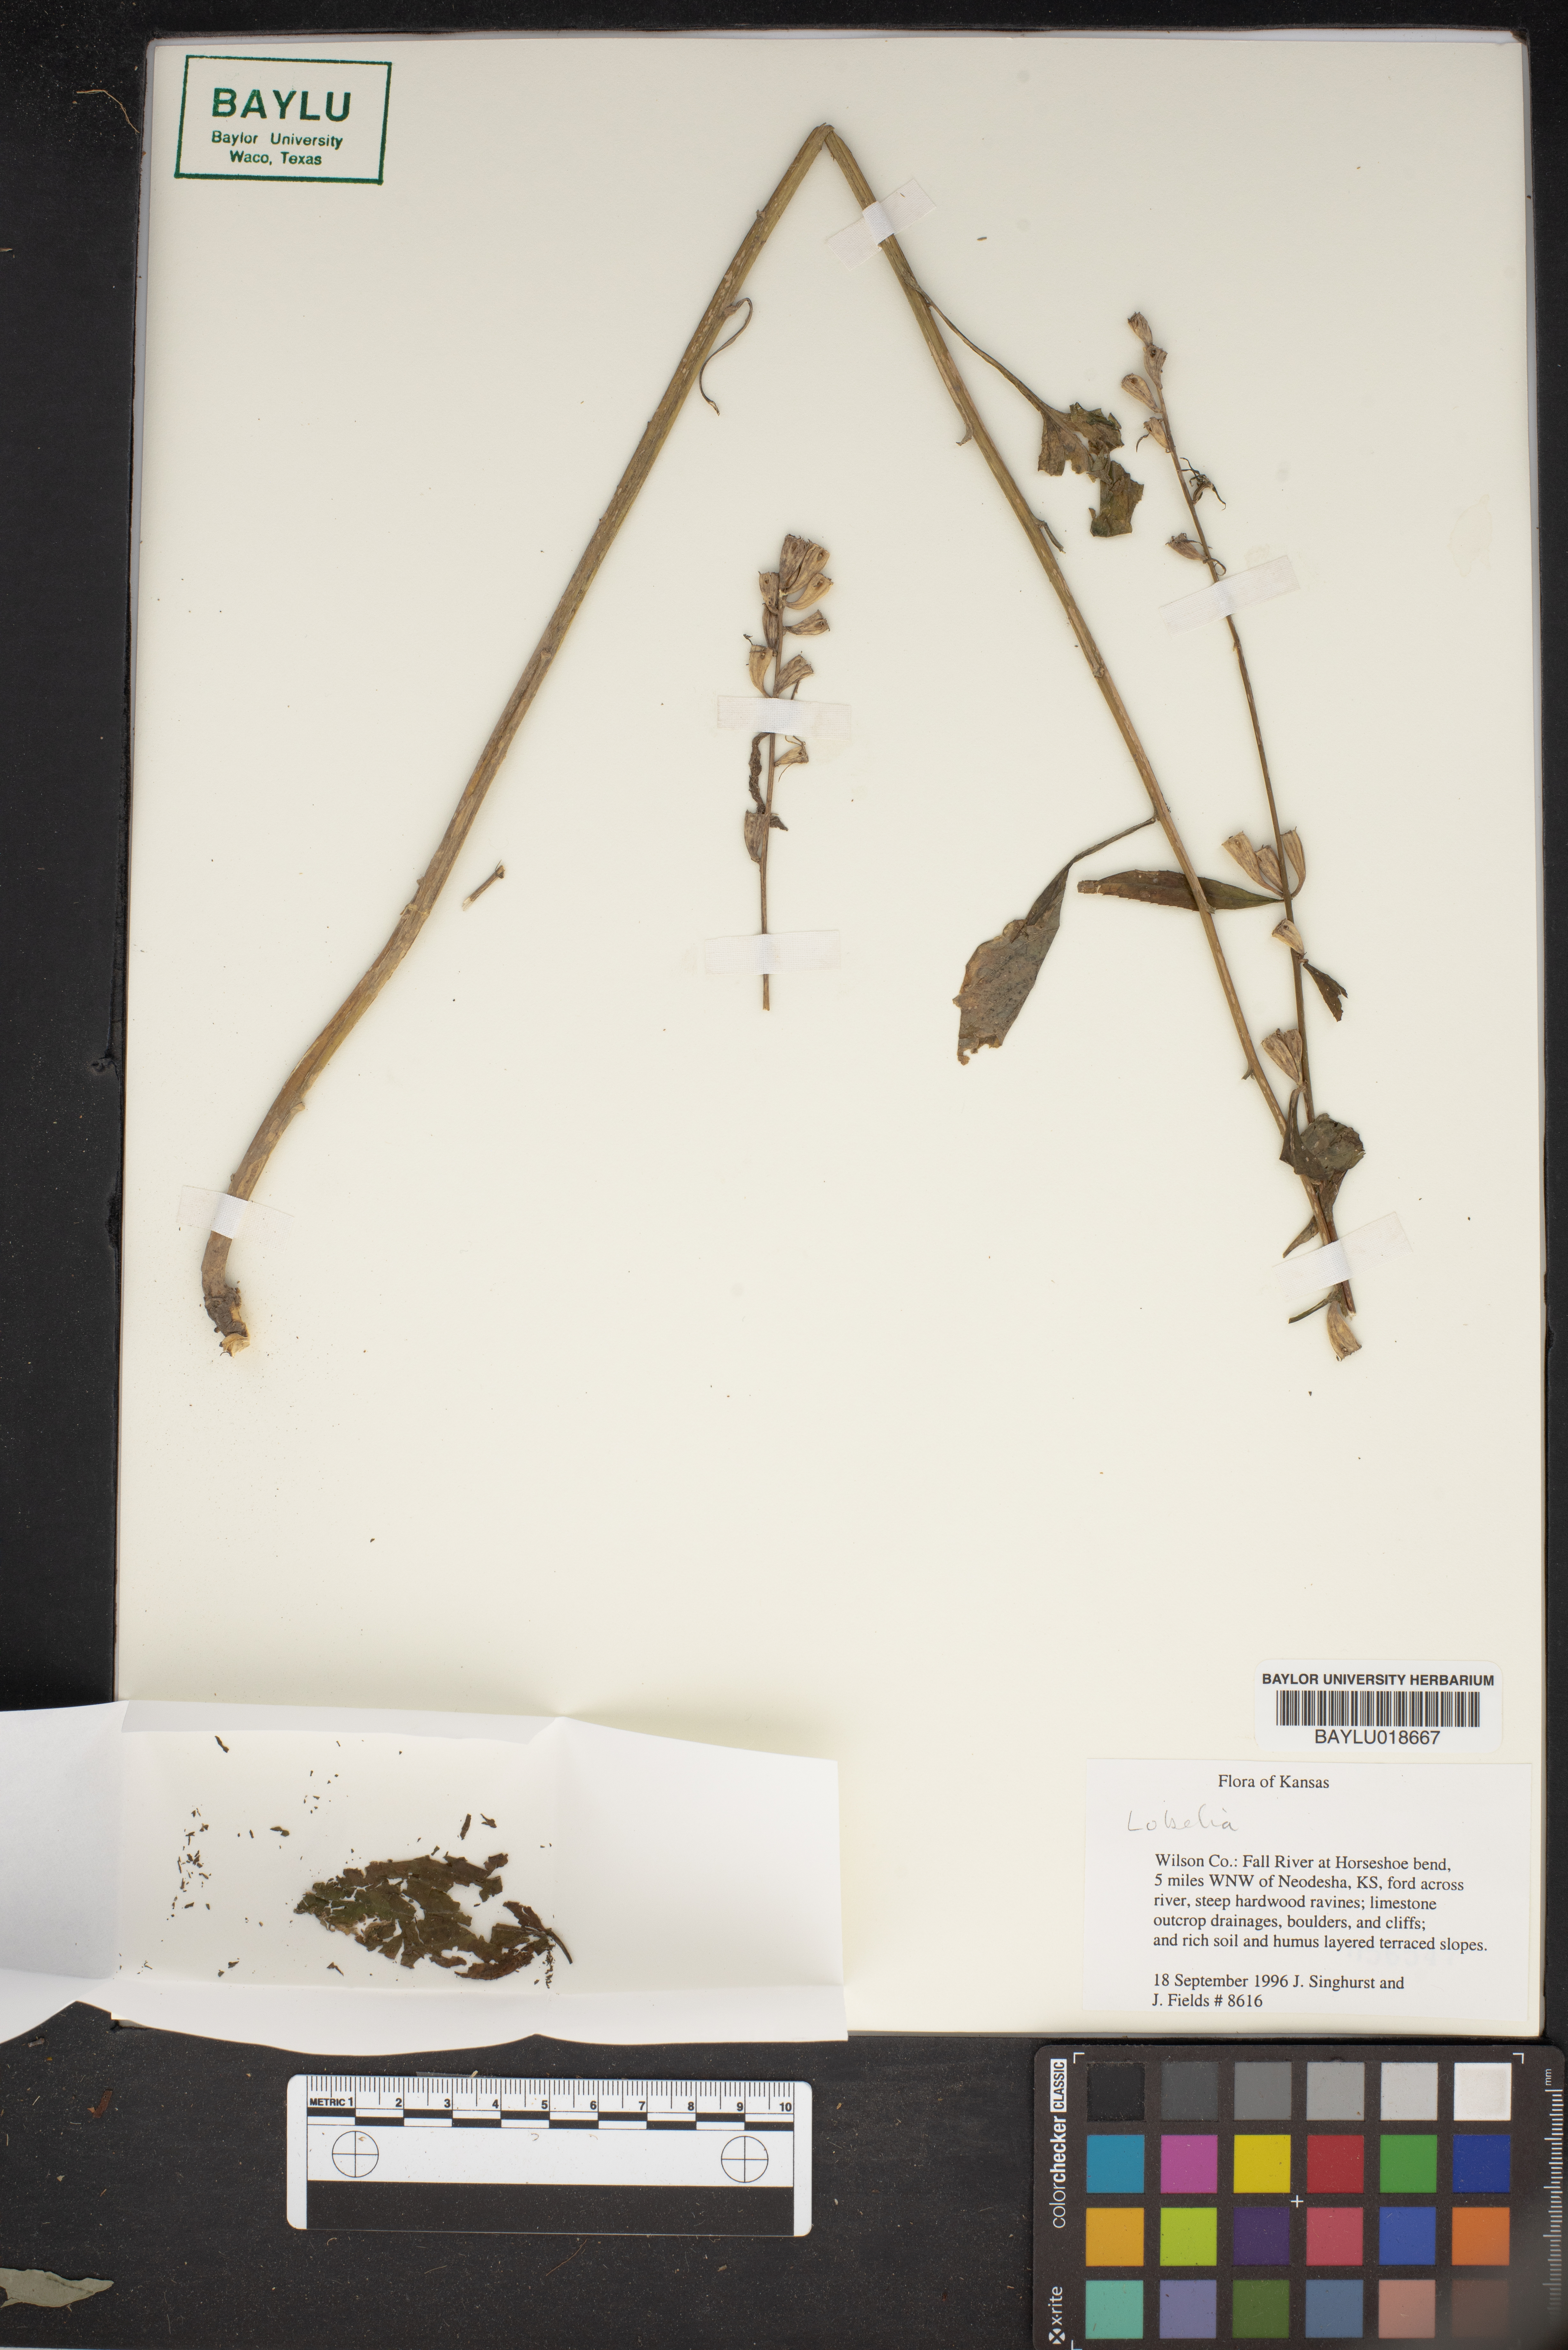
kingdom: Plantae
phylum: Tracheophyta
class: Magnoliopsida
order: Asterales
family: Campanulaceae
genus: Lobelia
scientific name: Lobelia
